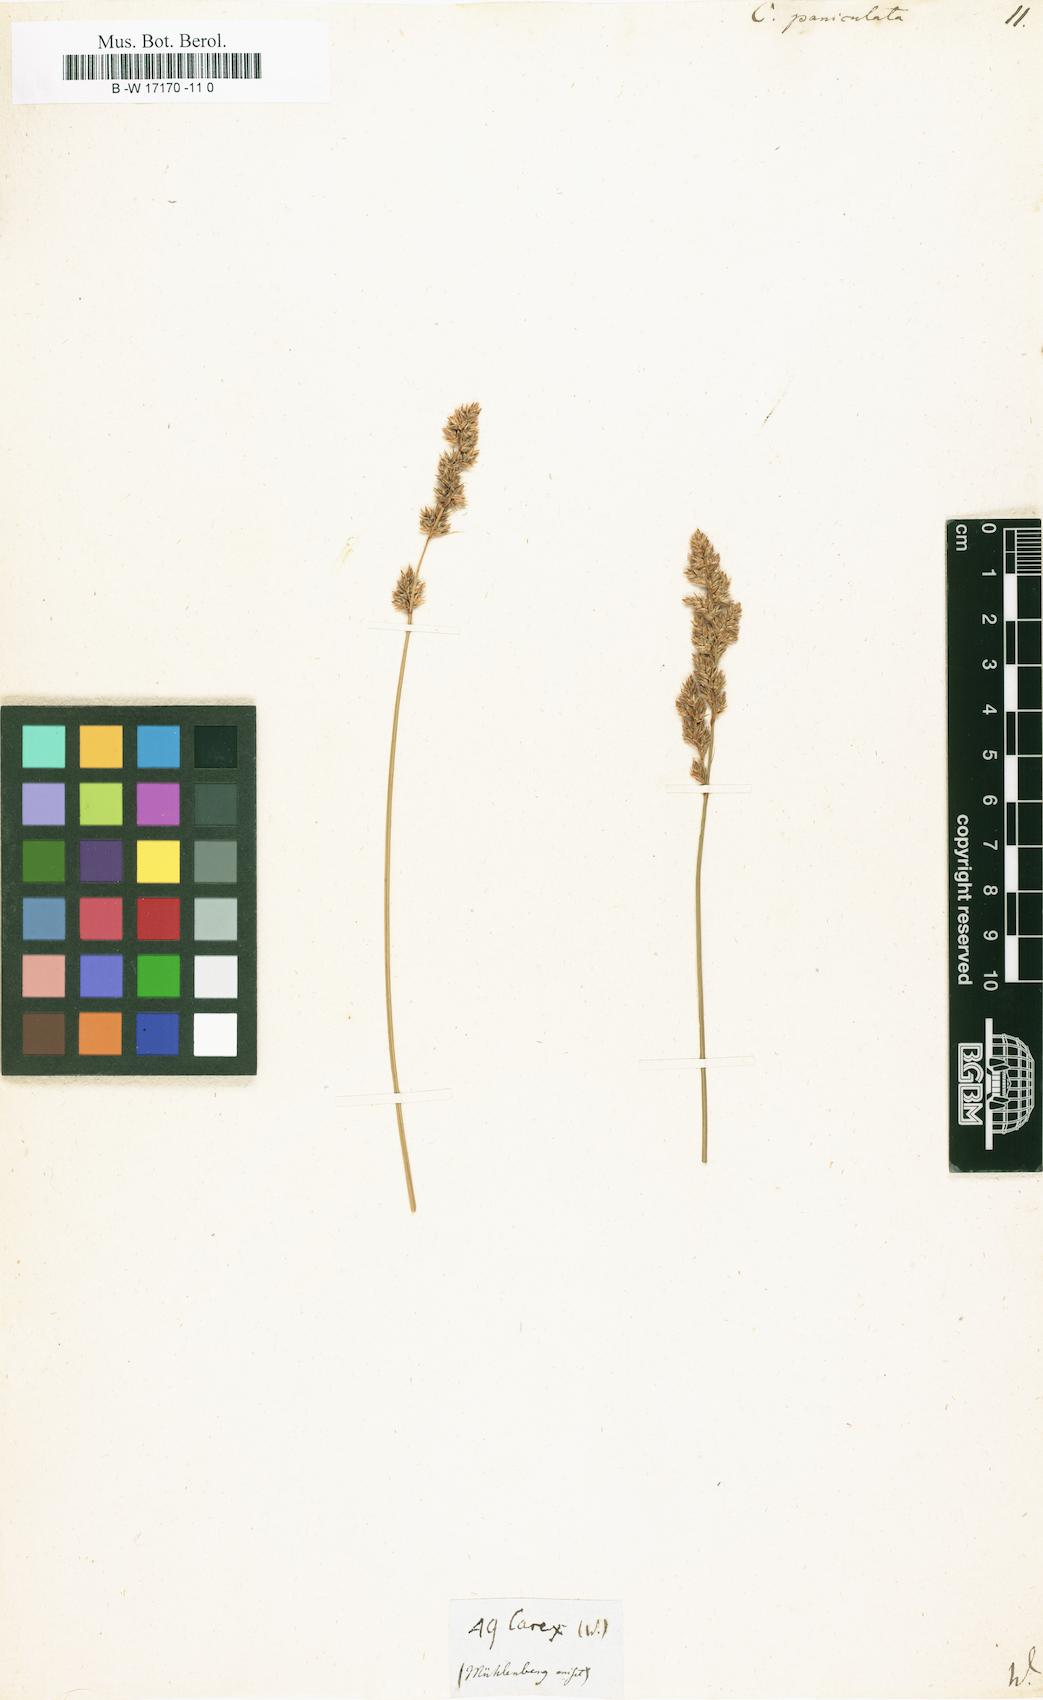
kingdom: Plantae
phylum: Tracheophyta
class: Liliopsida
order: Poales
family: Cyperaceae
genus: Carex
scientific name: Carex paniculata
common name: Greater tussock-sedge
